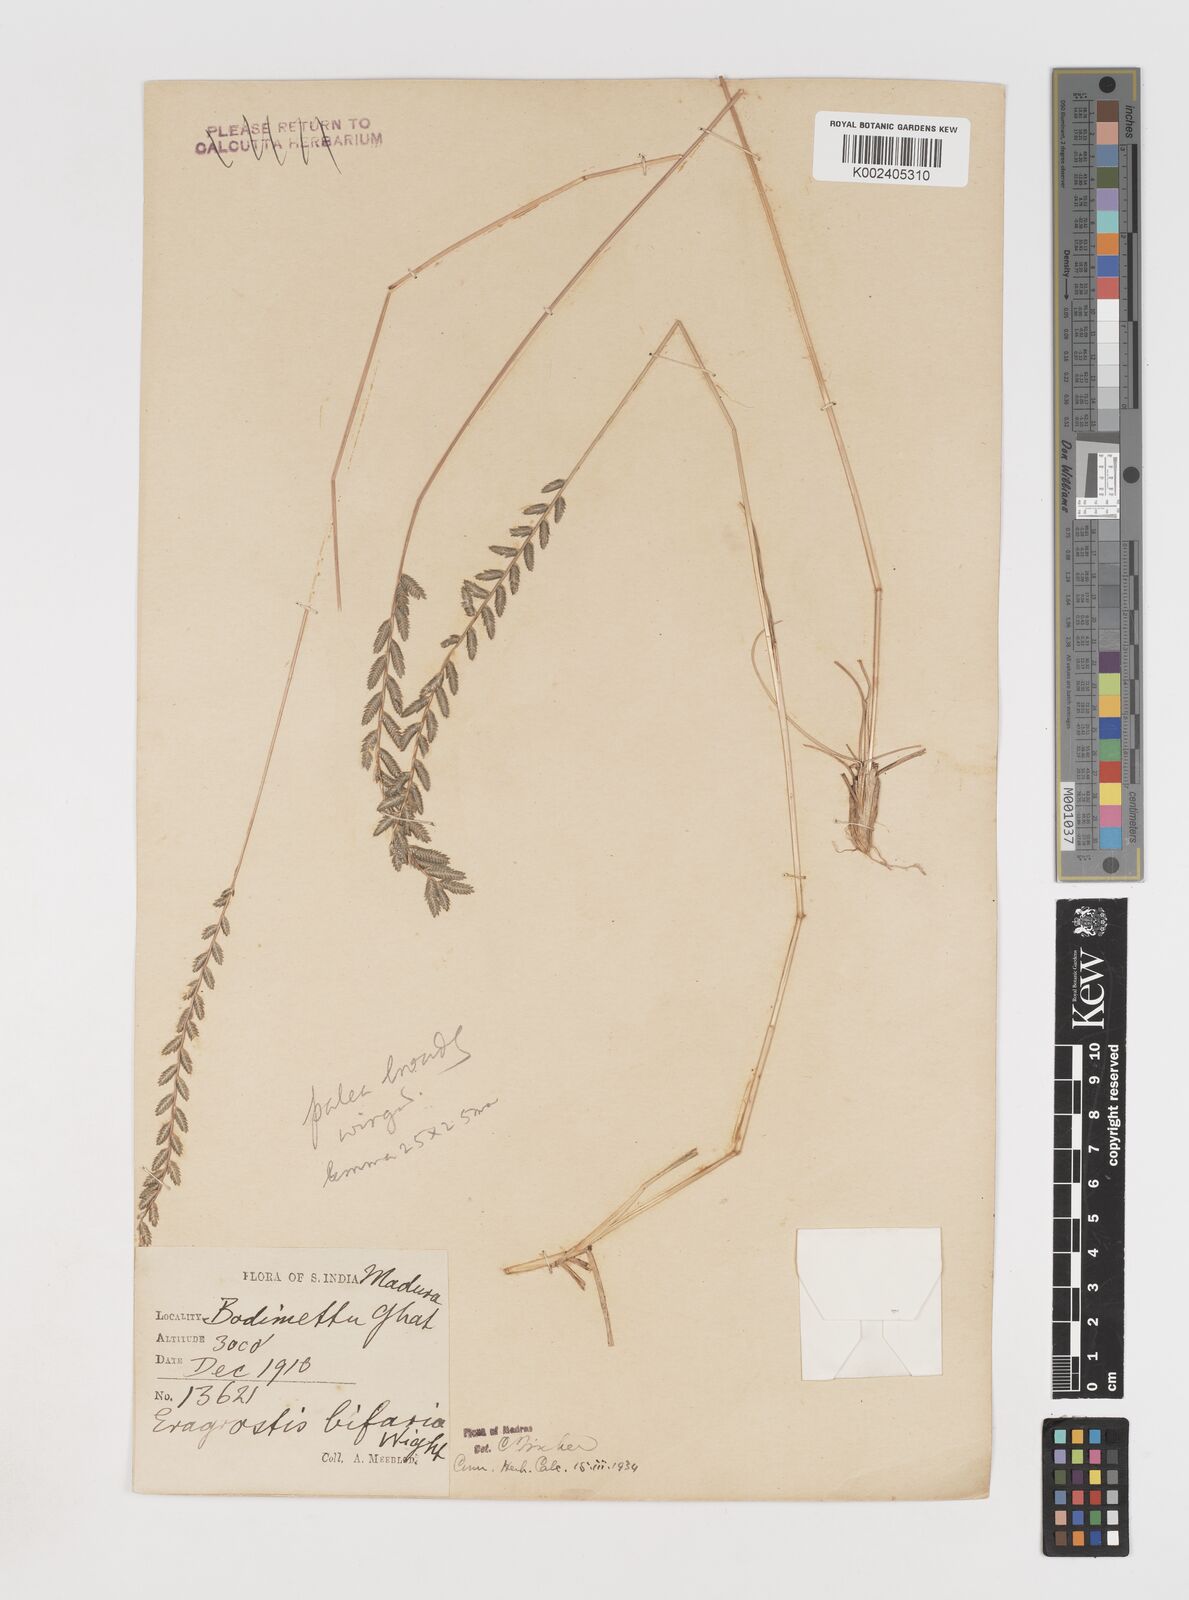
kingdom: Plantae
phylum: Tracheophyta
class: Liliopsida
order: Poales
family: Poaceae
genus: Eragrostiella
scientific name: Eragrostiella bifaria
